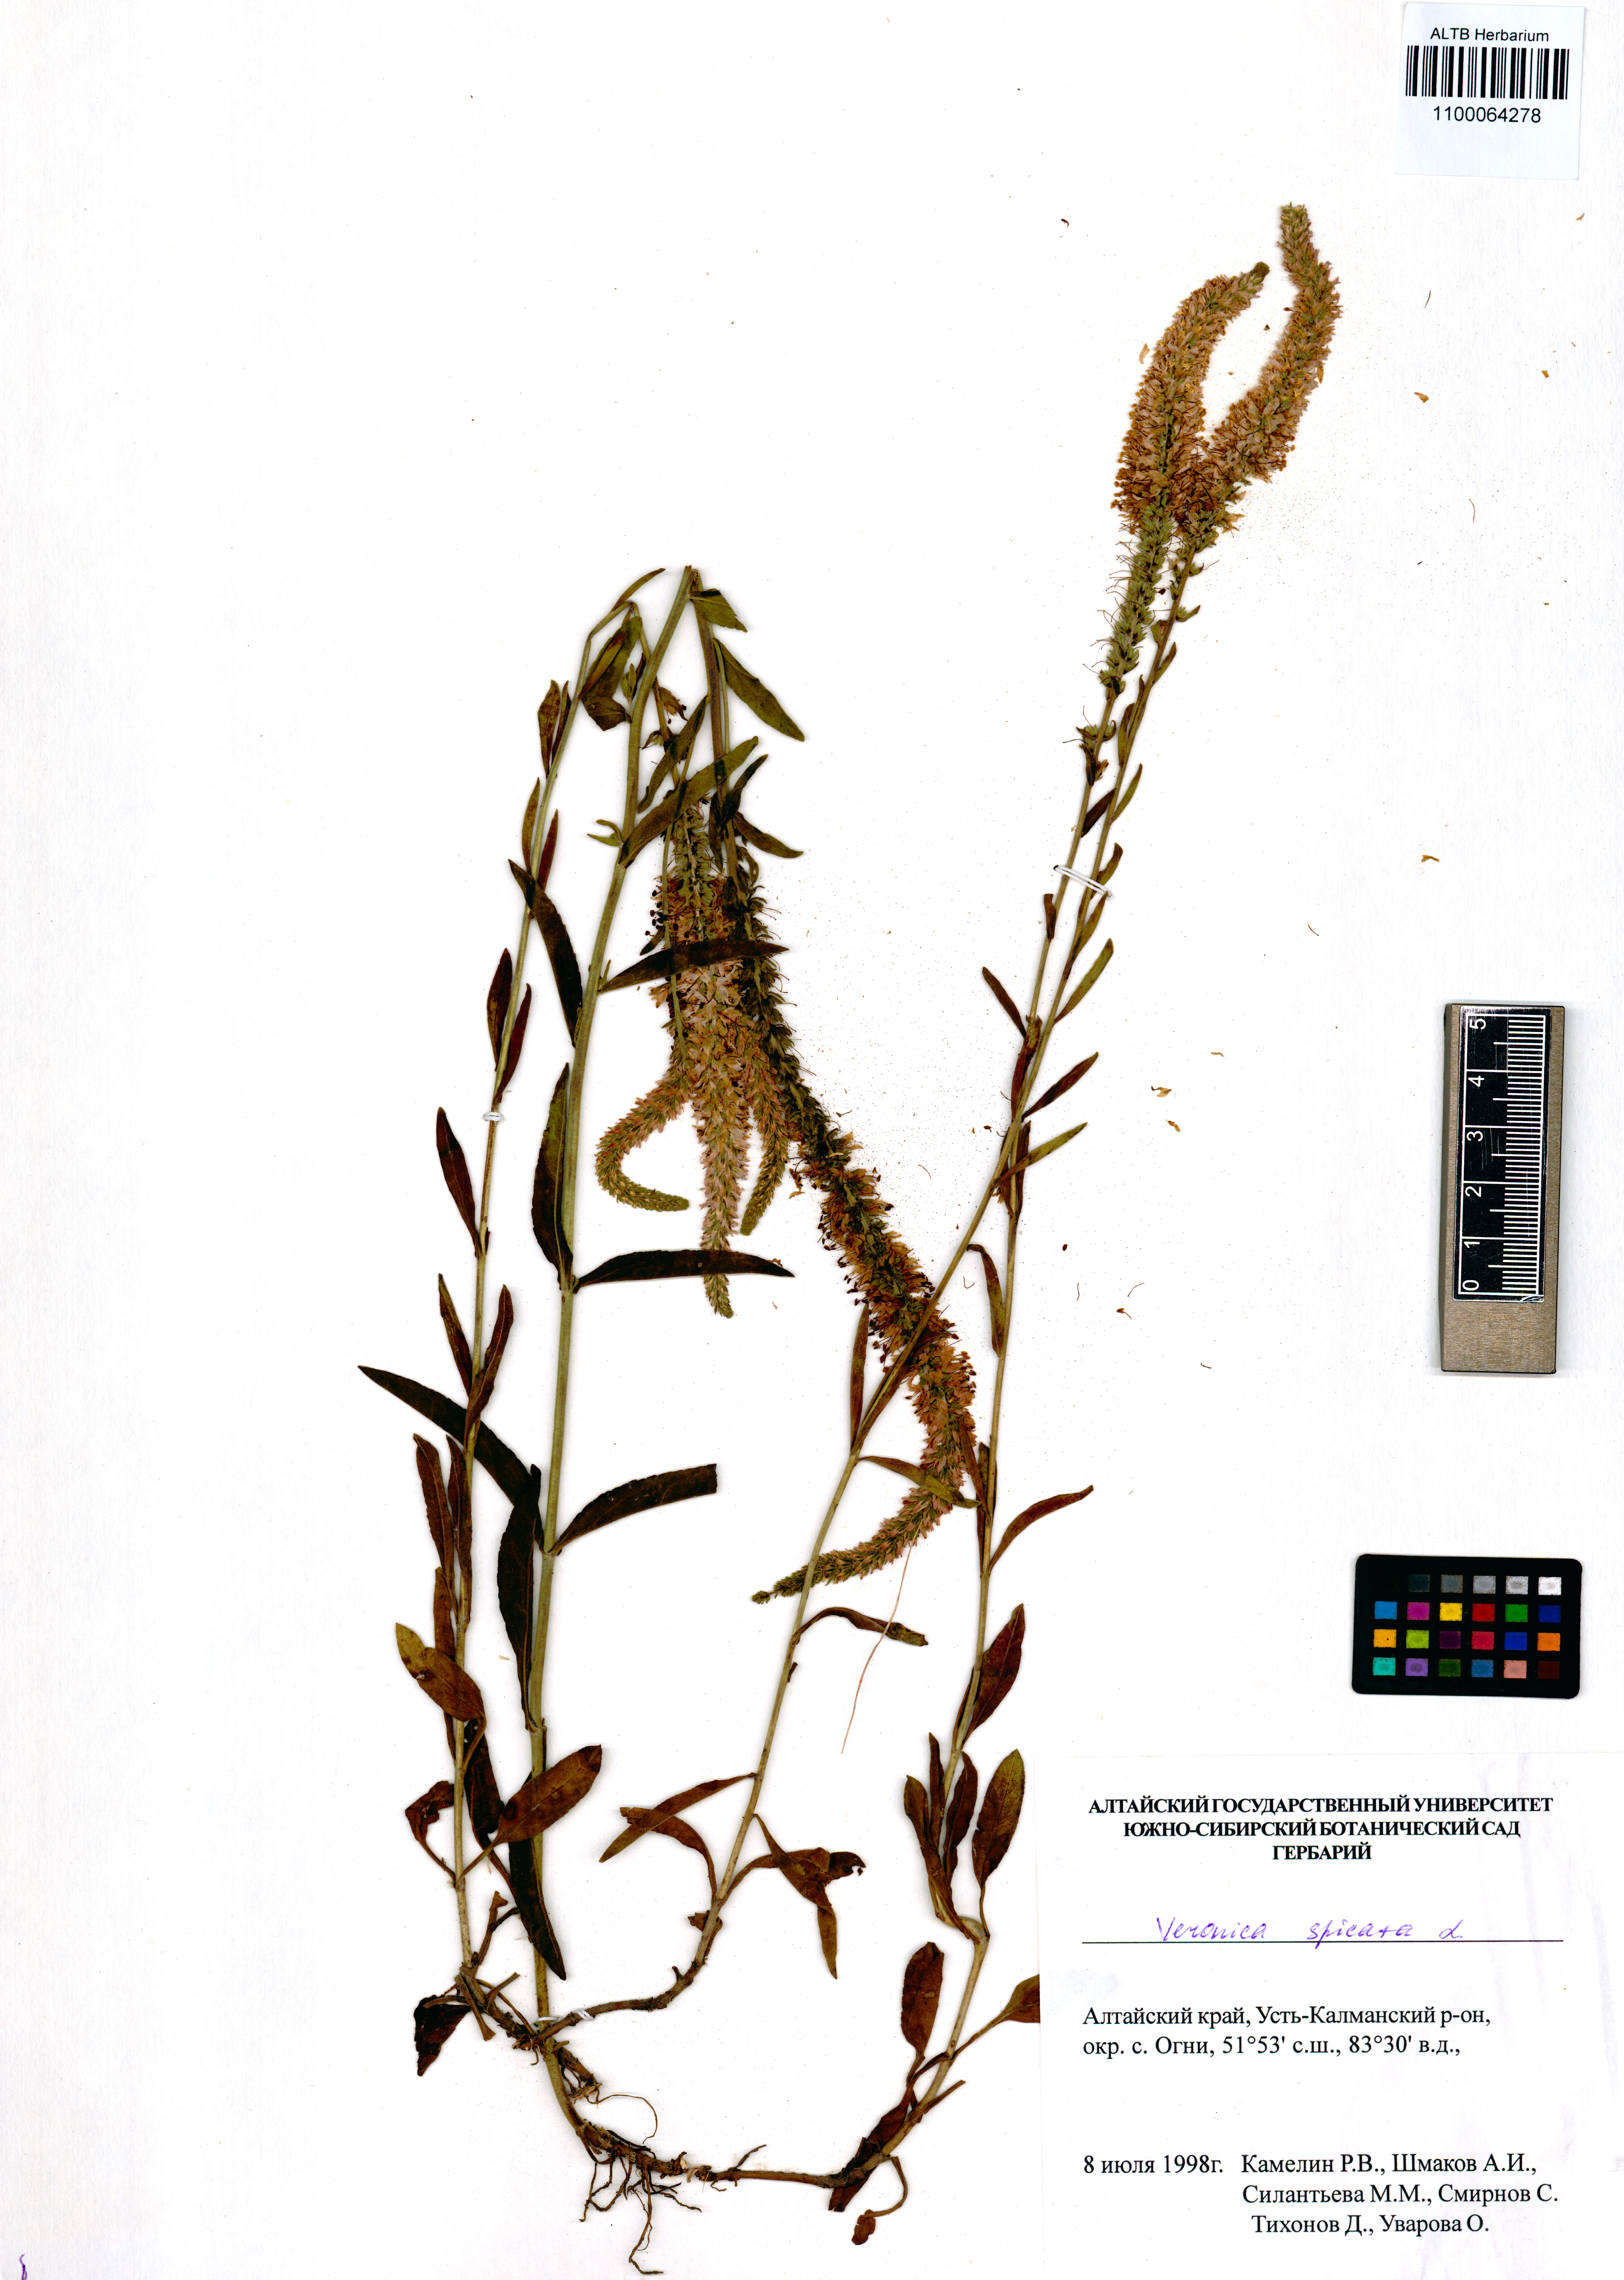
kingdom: Plantae
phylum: Tracheophyta
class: Magnoliopsida
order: Lamiales
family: Plantaginaceae
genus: Veronica
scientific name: Veronica spicata
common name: Spiked speedwell
